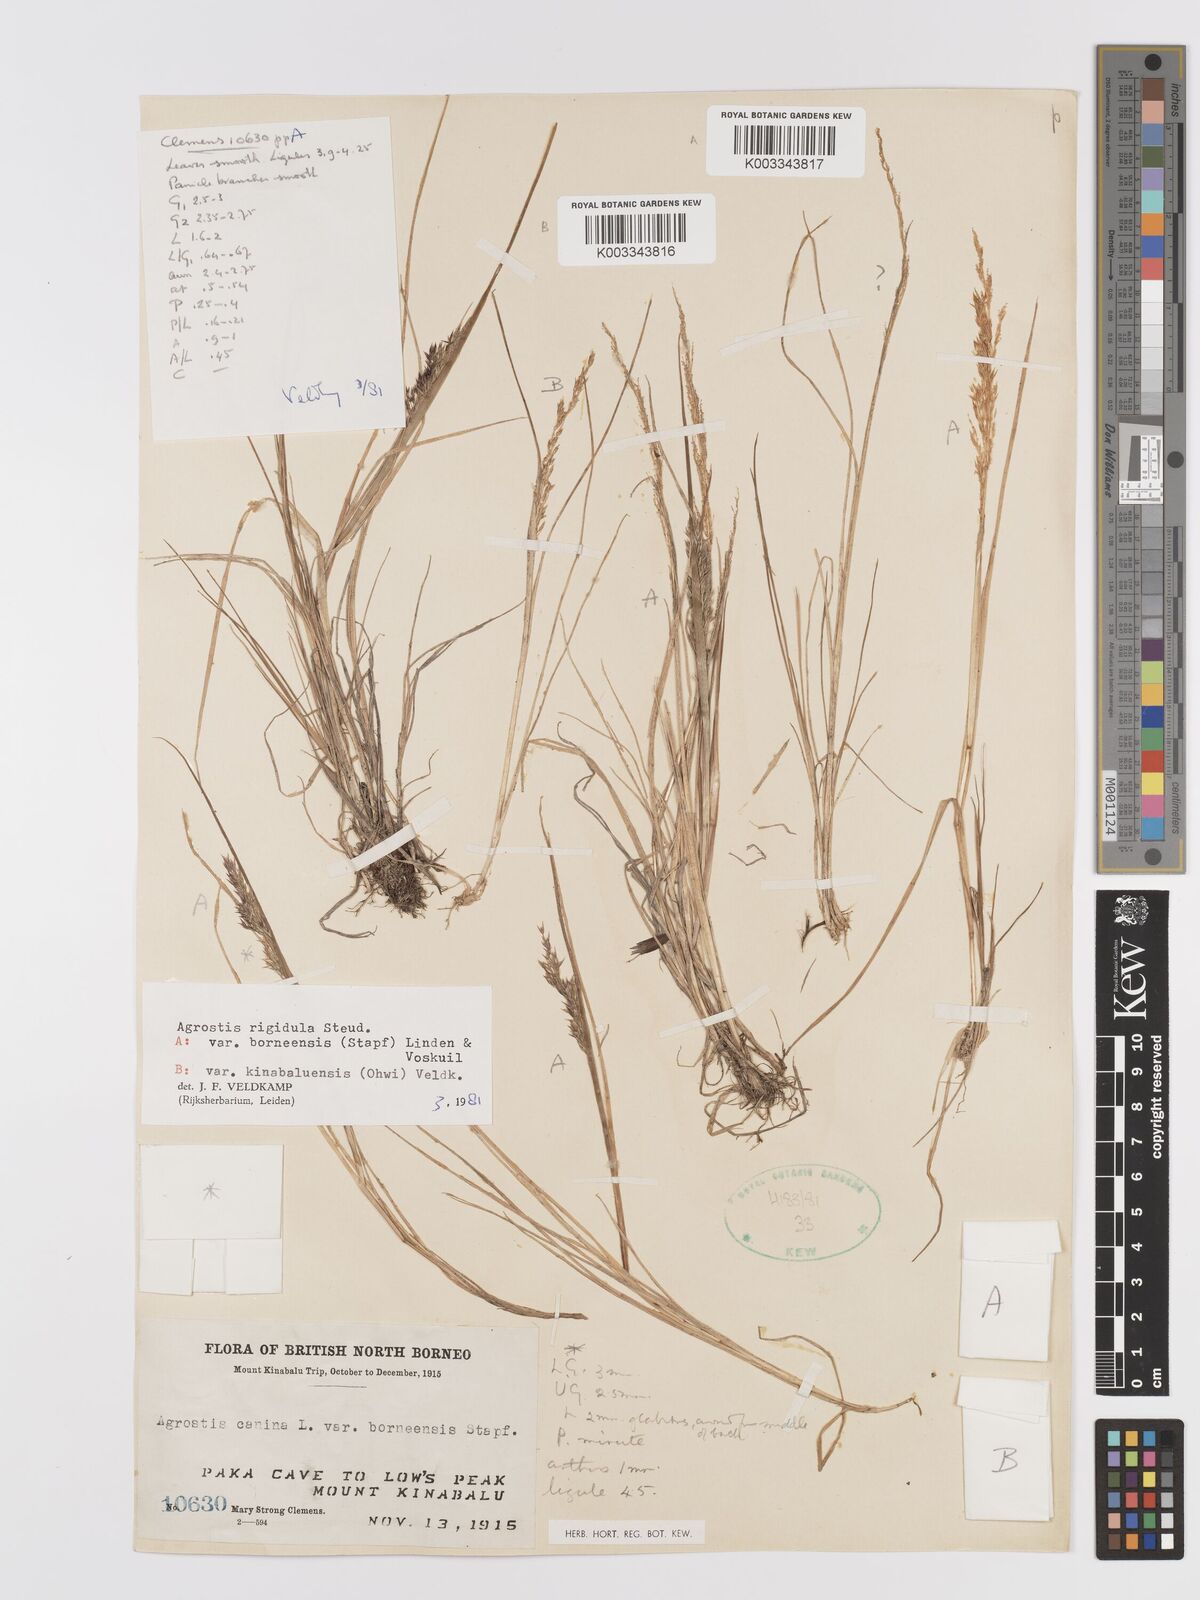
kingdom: Plantae
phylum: Tracheophyta
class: Liliopsida
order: Poales
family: Poaceae
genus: Agrostis
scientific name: Agrostis infirma
